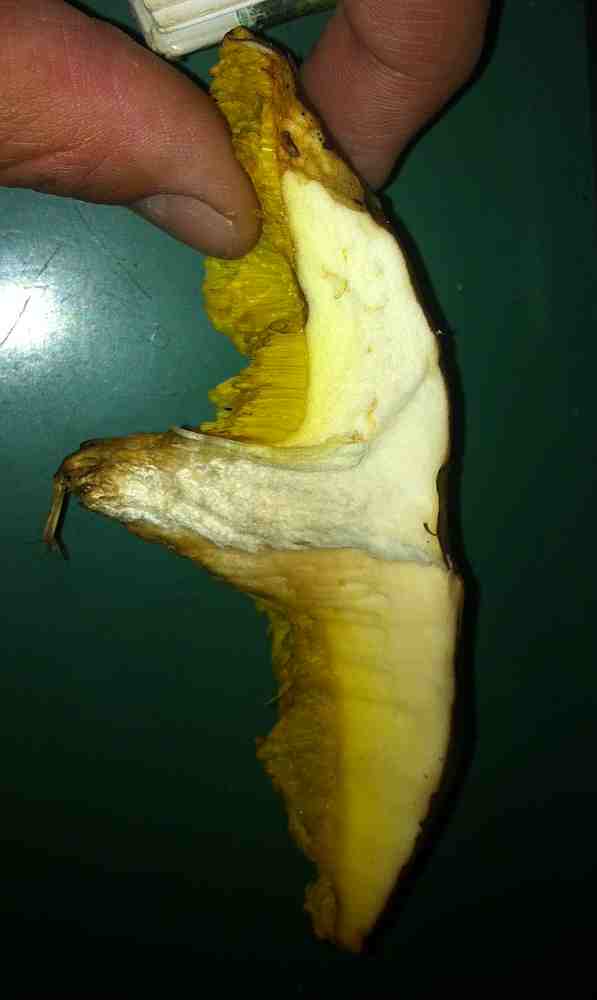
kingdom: Fungi
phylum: Basidiomycota
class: Agaricomycetes
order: Boletales
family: Boletaceae
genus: Xerocomus
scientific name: Xerocomus subtomentosus
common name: filtet rørhat
